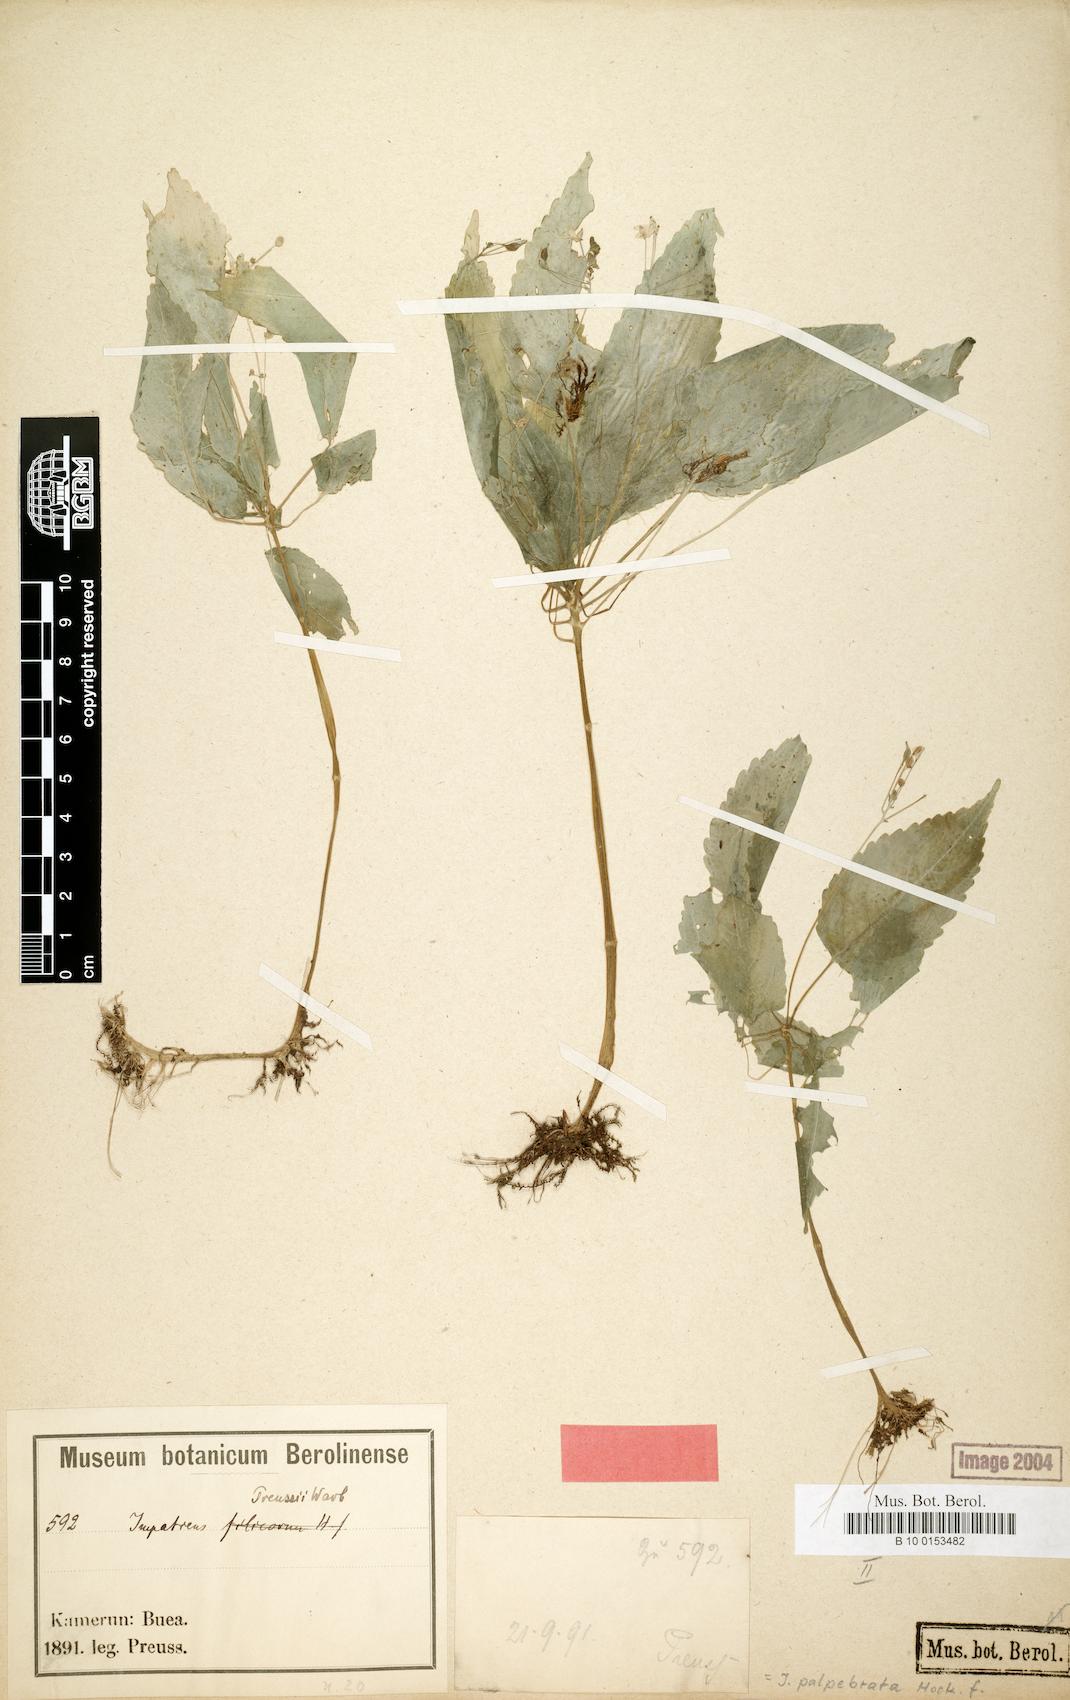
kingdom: Plantae
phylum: Tracheophyta
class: Magnoliopsida
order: Ericales
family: Balsaminaceae
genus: Impatiens
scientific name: Impatiens palpebrata
